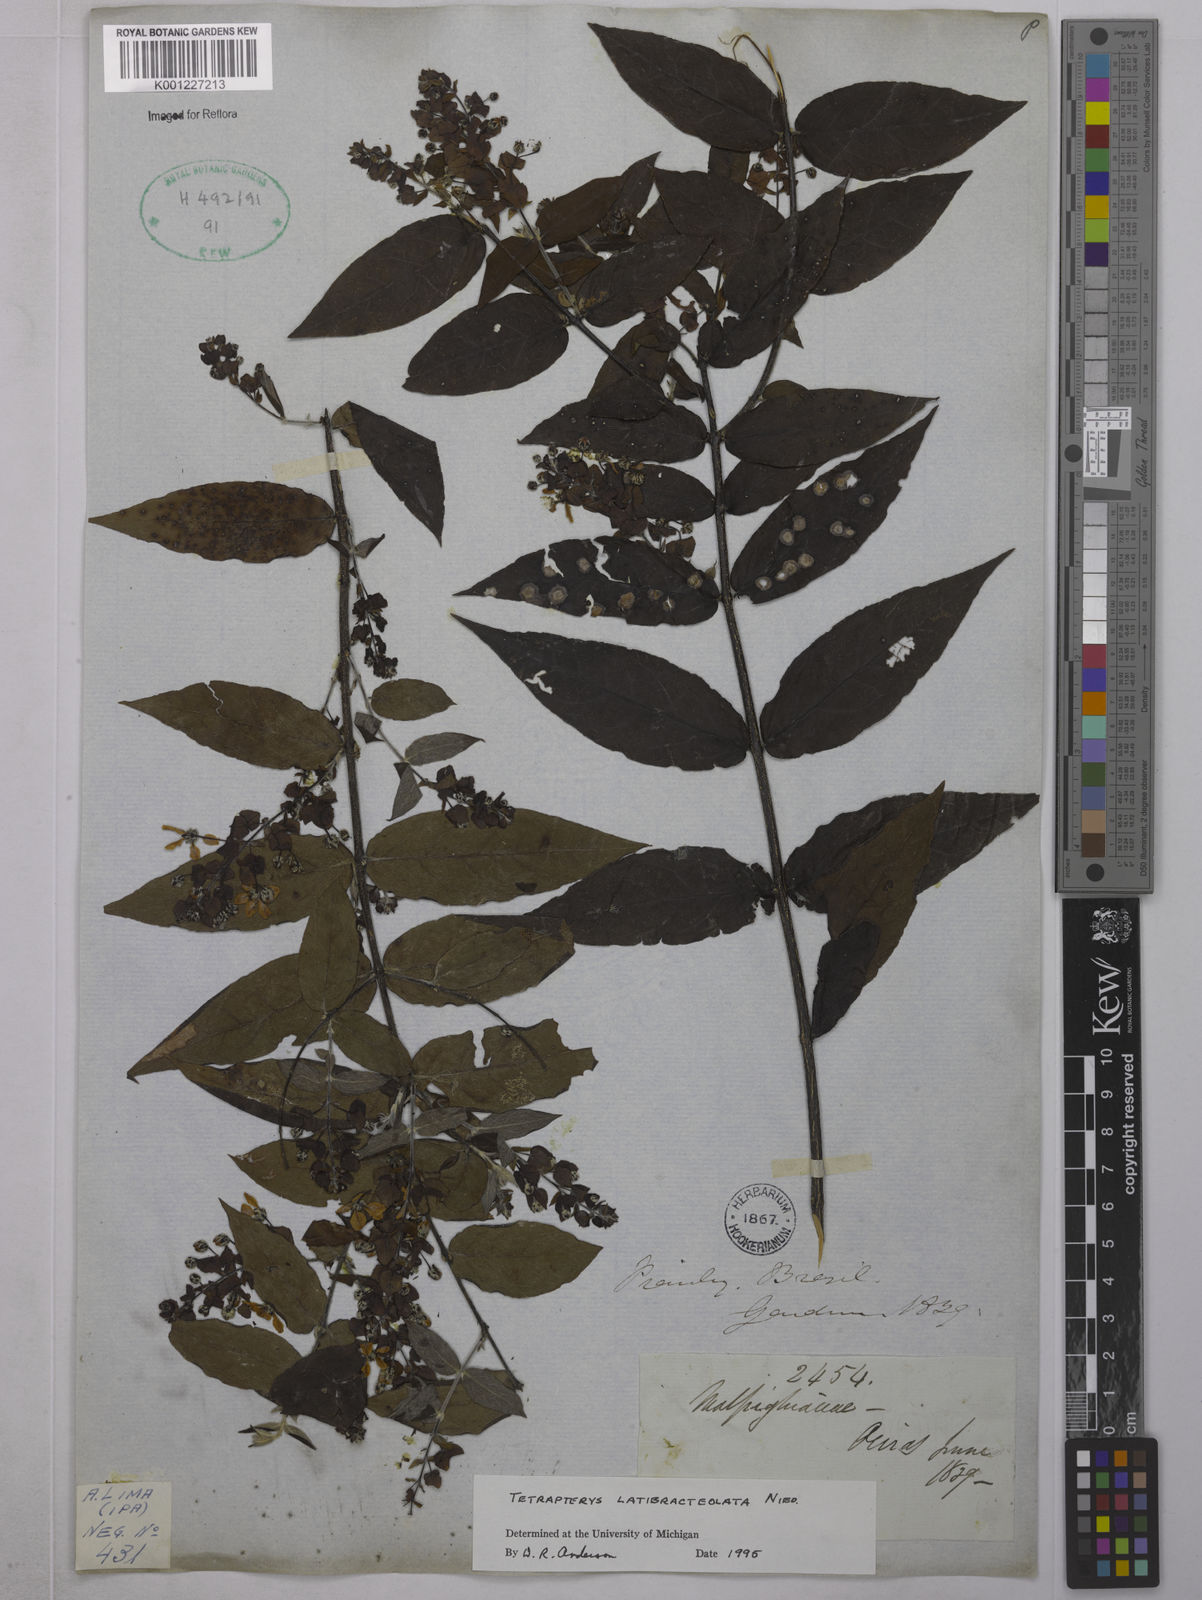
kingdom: Plantae
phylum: Tracheophyta
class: Magnoliopsida
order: Malpighiales
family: Malpighiaceae
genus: Tetrapterys
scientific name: Tetrapterys
